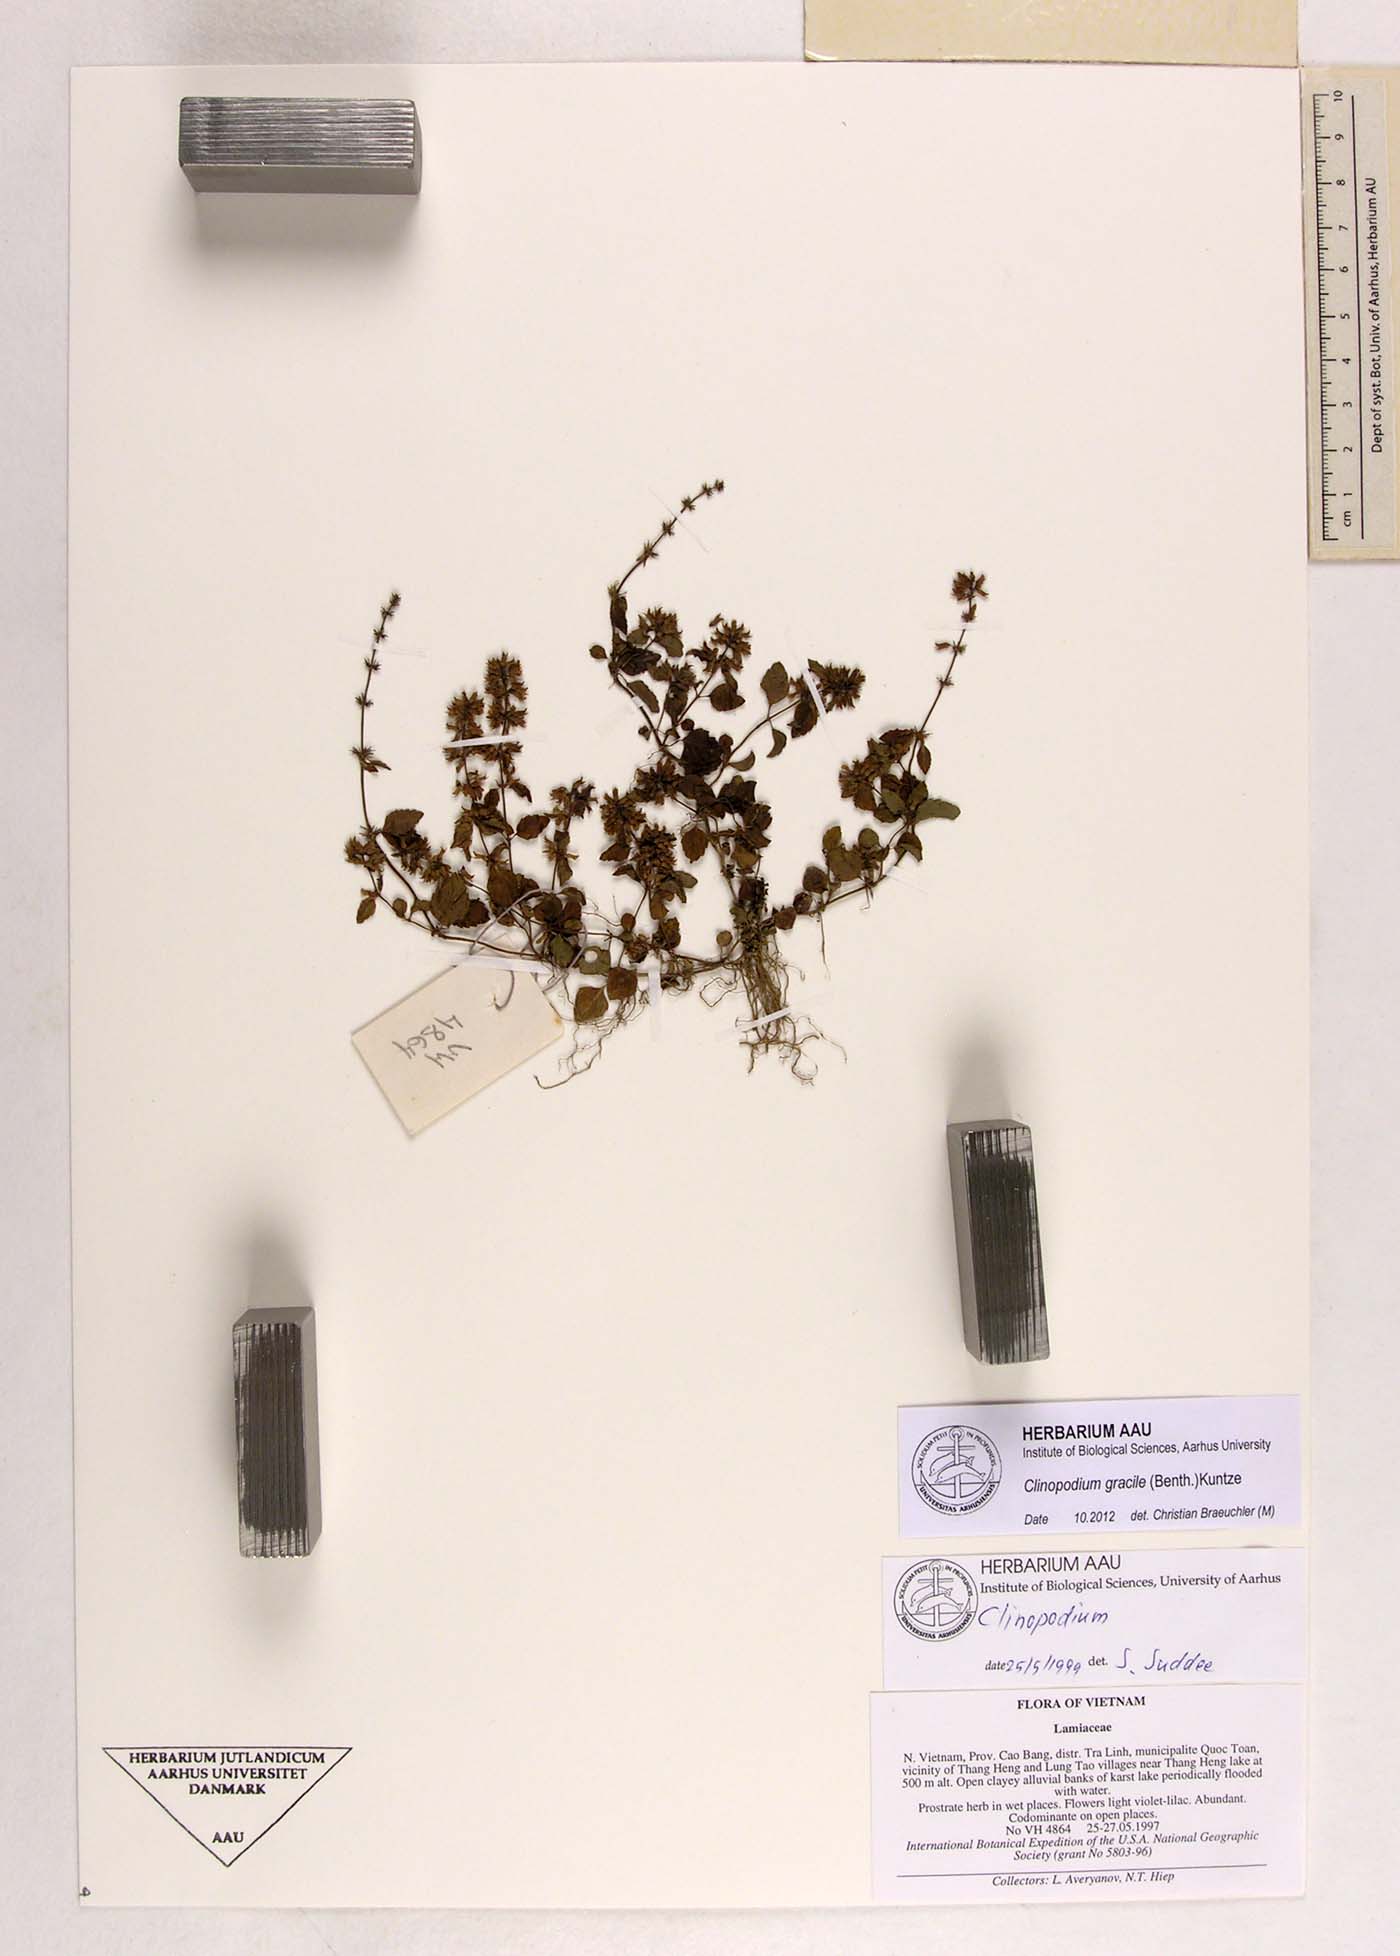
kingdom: Plantae
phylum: Tracheophyta
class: Magnoliopsida
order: Lamiales
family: Lamiaceae
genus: Clinopodium
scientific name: Clinopodium gracile
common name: Slender wild basil
